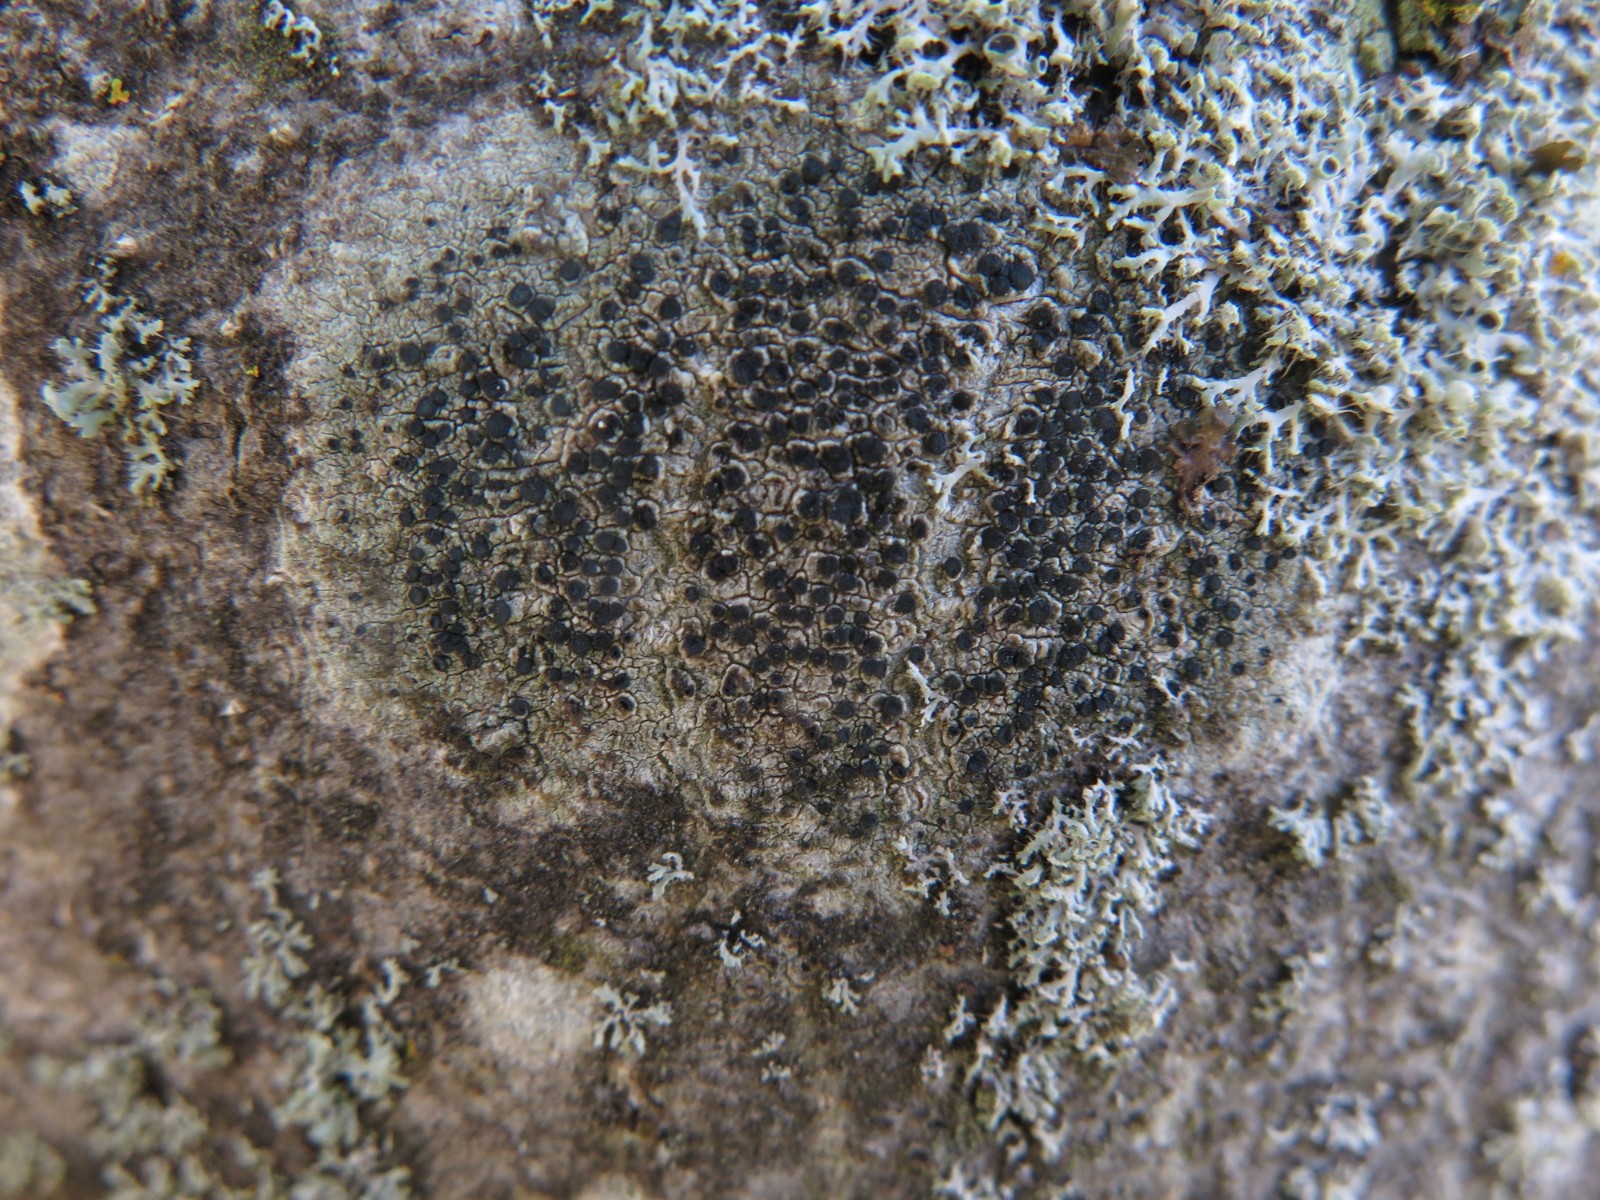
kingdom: Fungi
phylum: Ascomycota
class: Lecanoromycetes
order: Lecanorales
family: Lecanoraceae
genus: Lecidella
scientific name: Lecidella elaeochroma
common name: grågrøn skivelav
